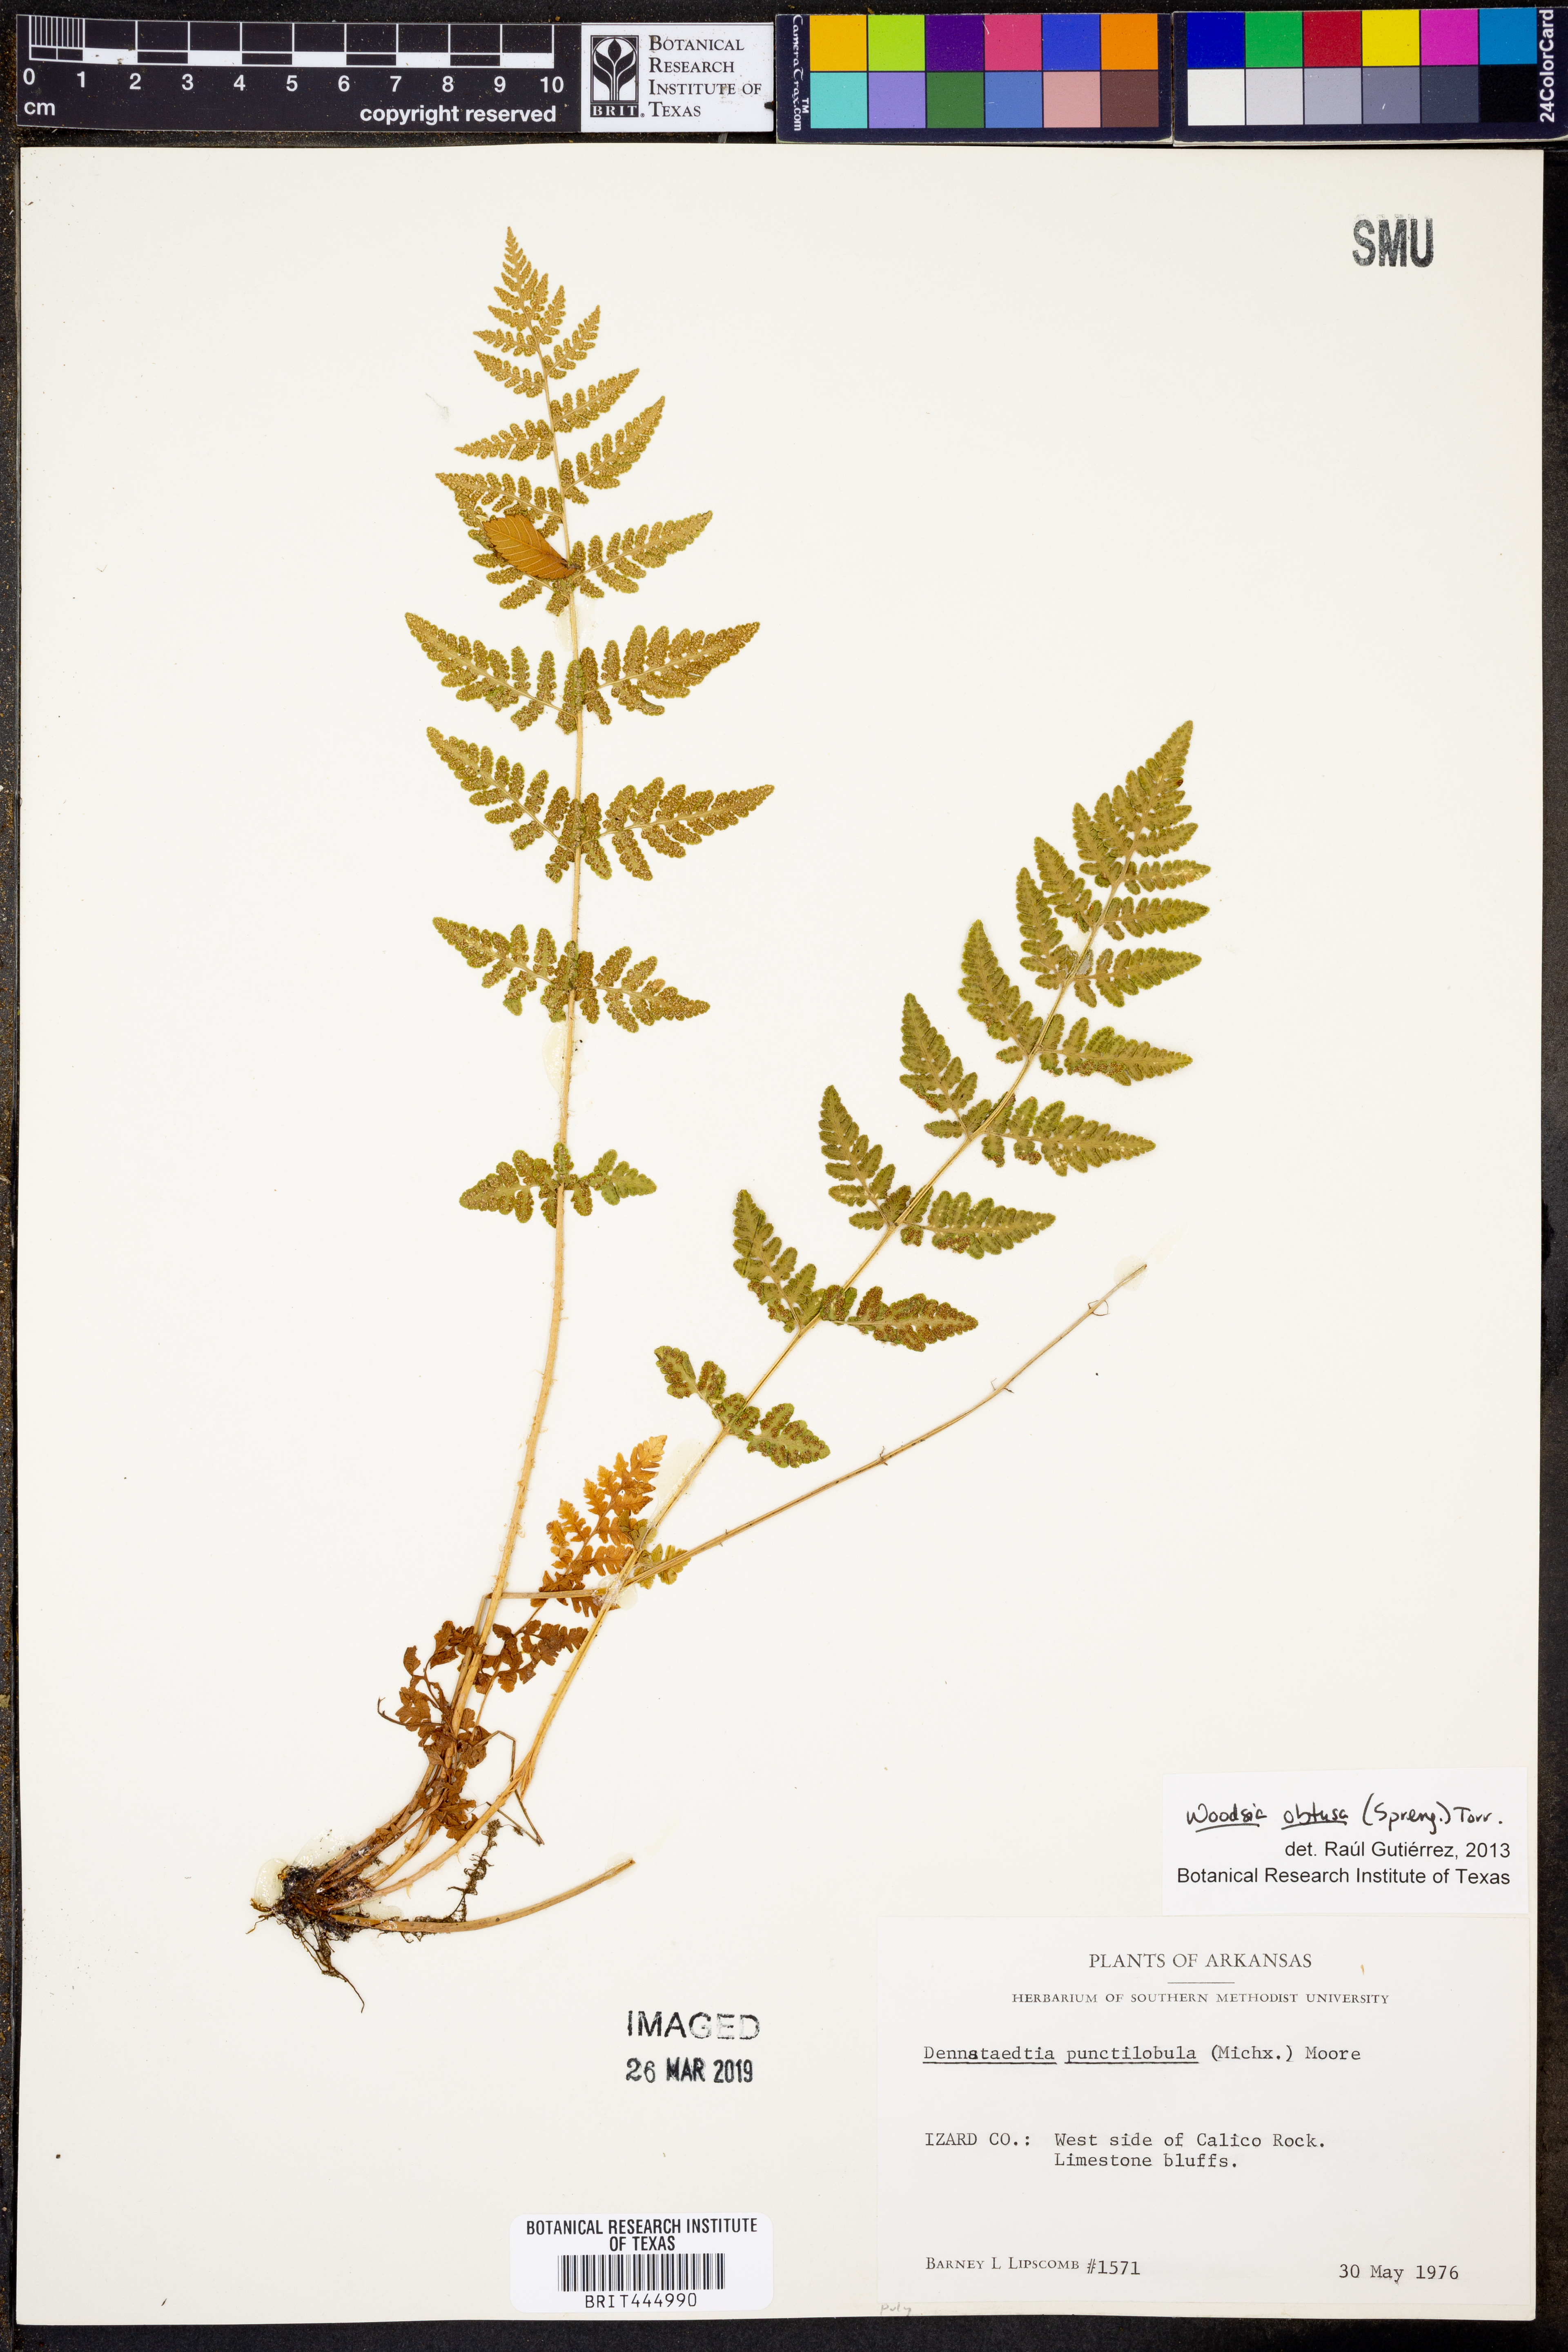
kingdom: Plantae
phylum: Tracheophyta
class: Polypodiopsida
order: Polypodiales
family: Woodsiaceae
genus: Physematium
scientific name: Physematium obtusum
